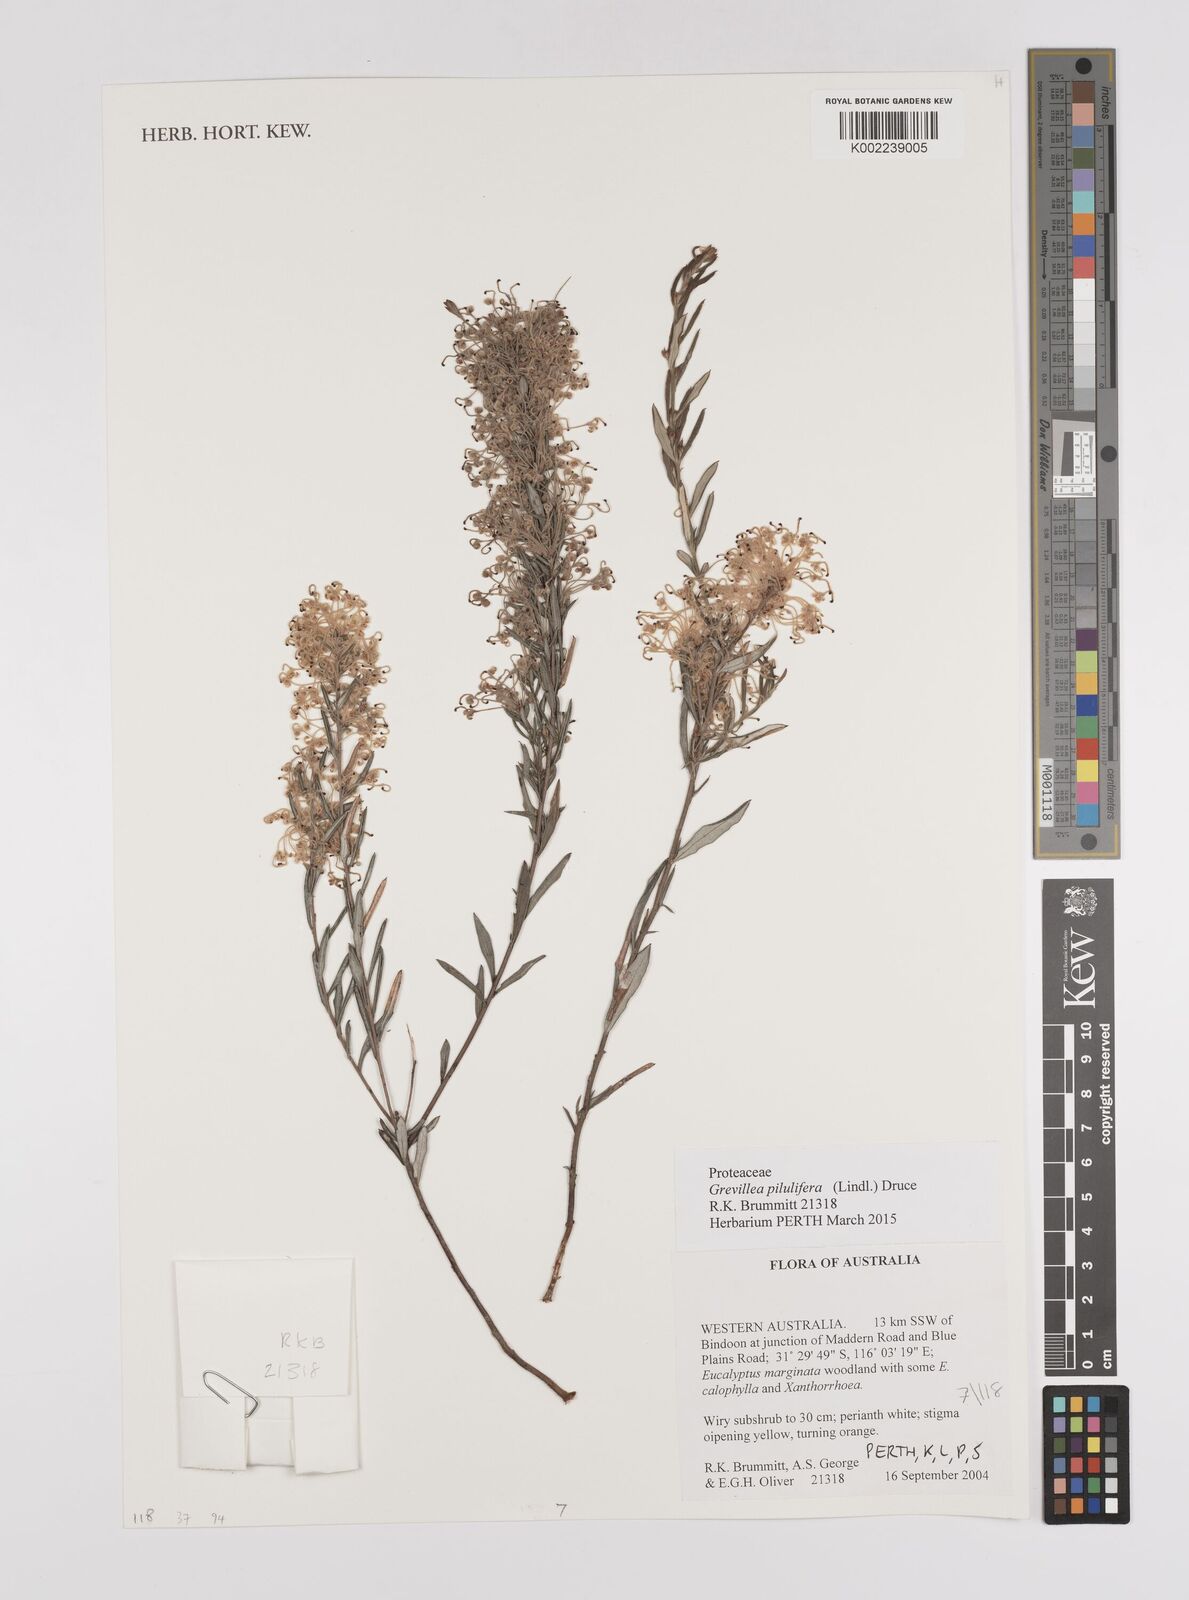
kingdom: Plantae
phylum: Tracheophyta
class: Magnoliopsida
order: Proteales
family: Proteaceae
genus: Grevillea
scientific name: Grevillea pilulifera
